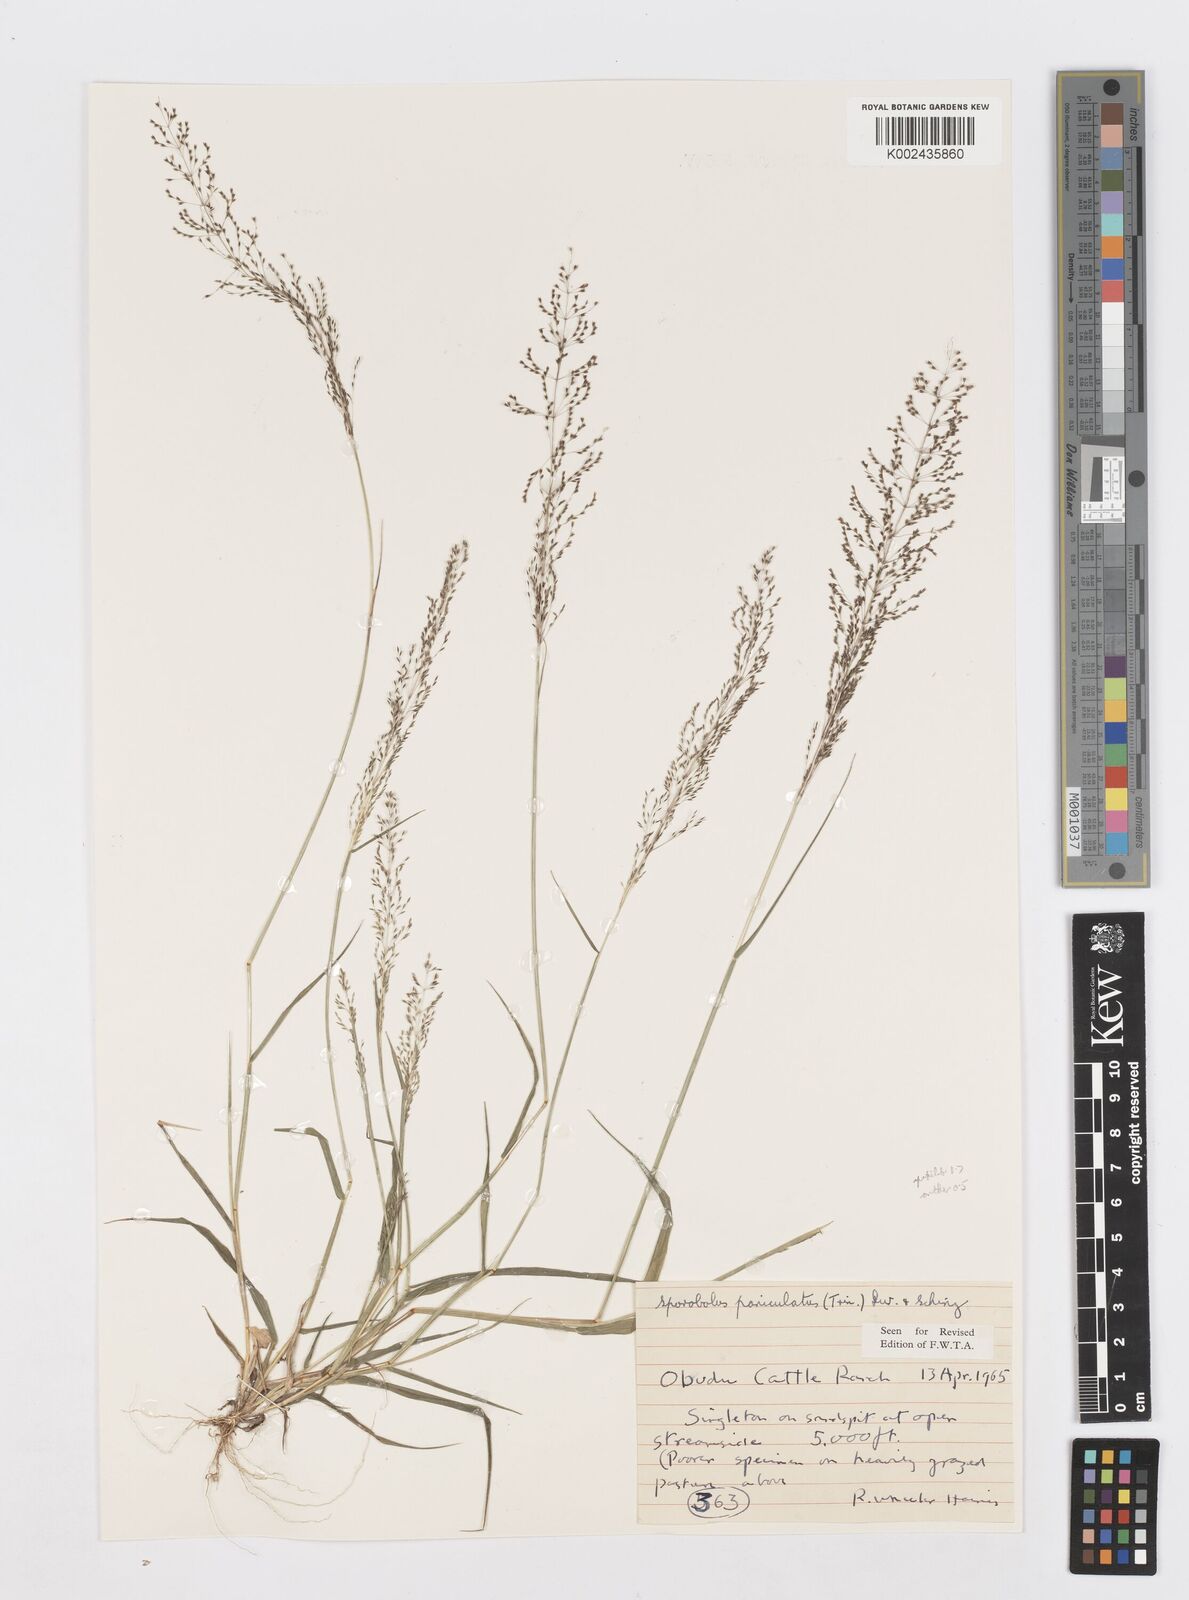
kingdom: Plantae
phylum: Tracheophyta
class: Liliopsida
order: Poales
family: Poaceae
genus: Sporobolus
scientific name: Sporobolus paniculatus
